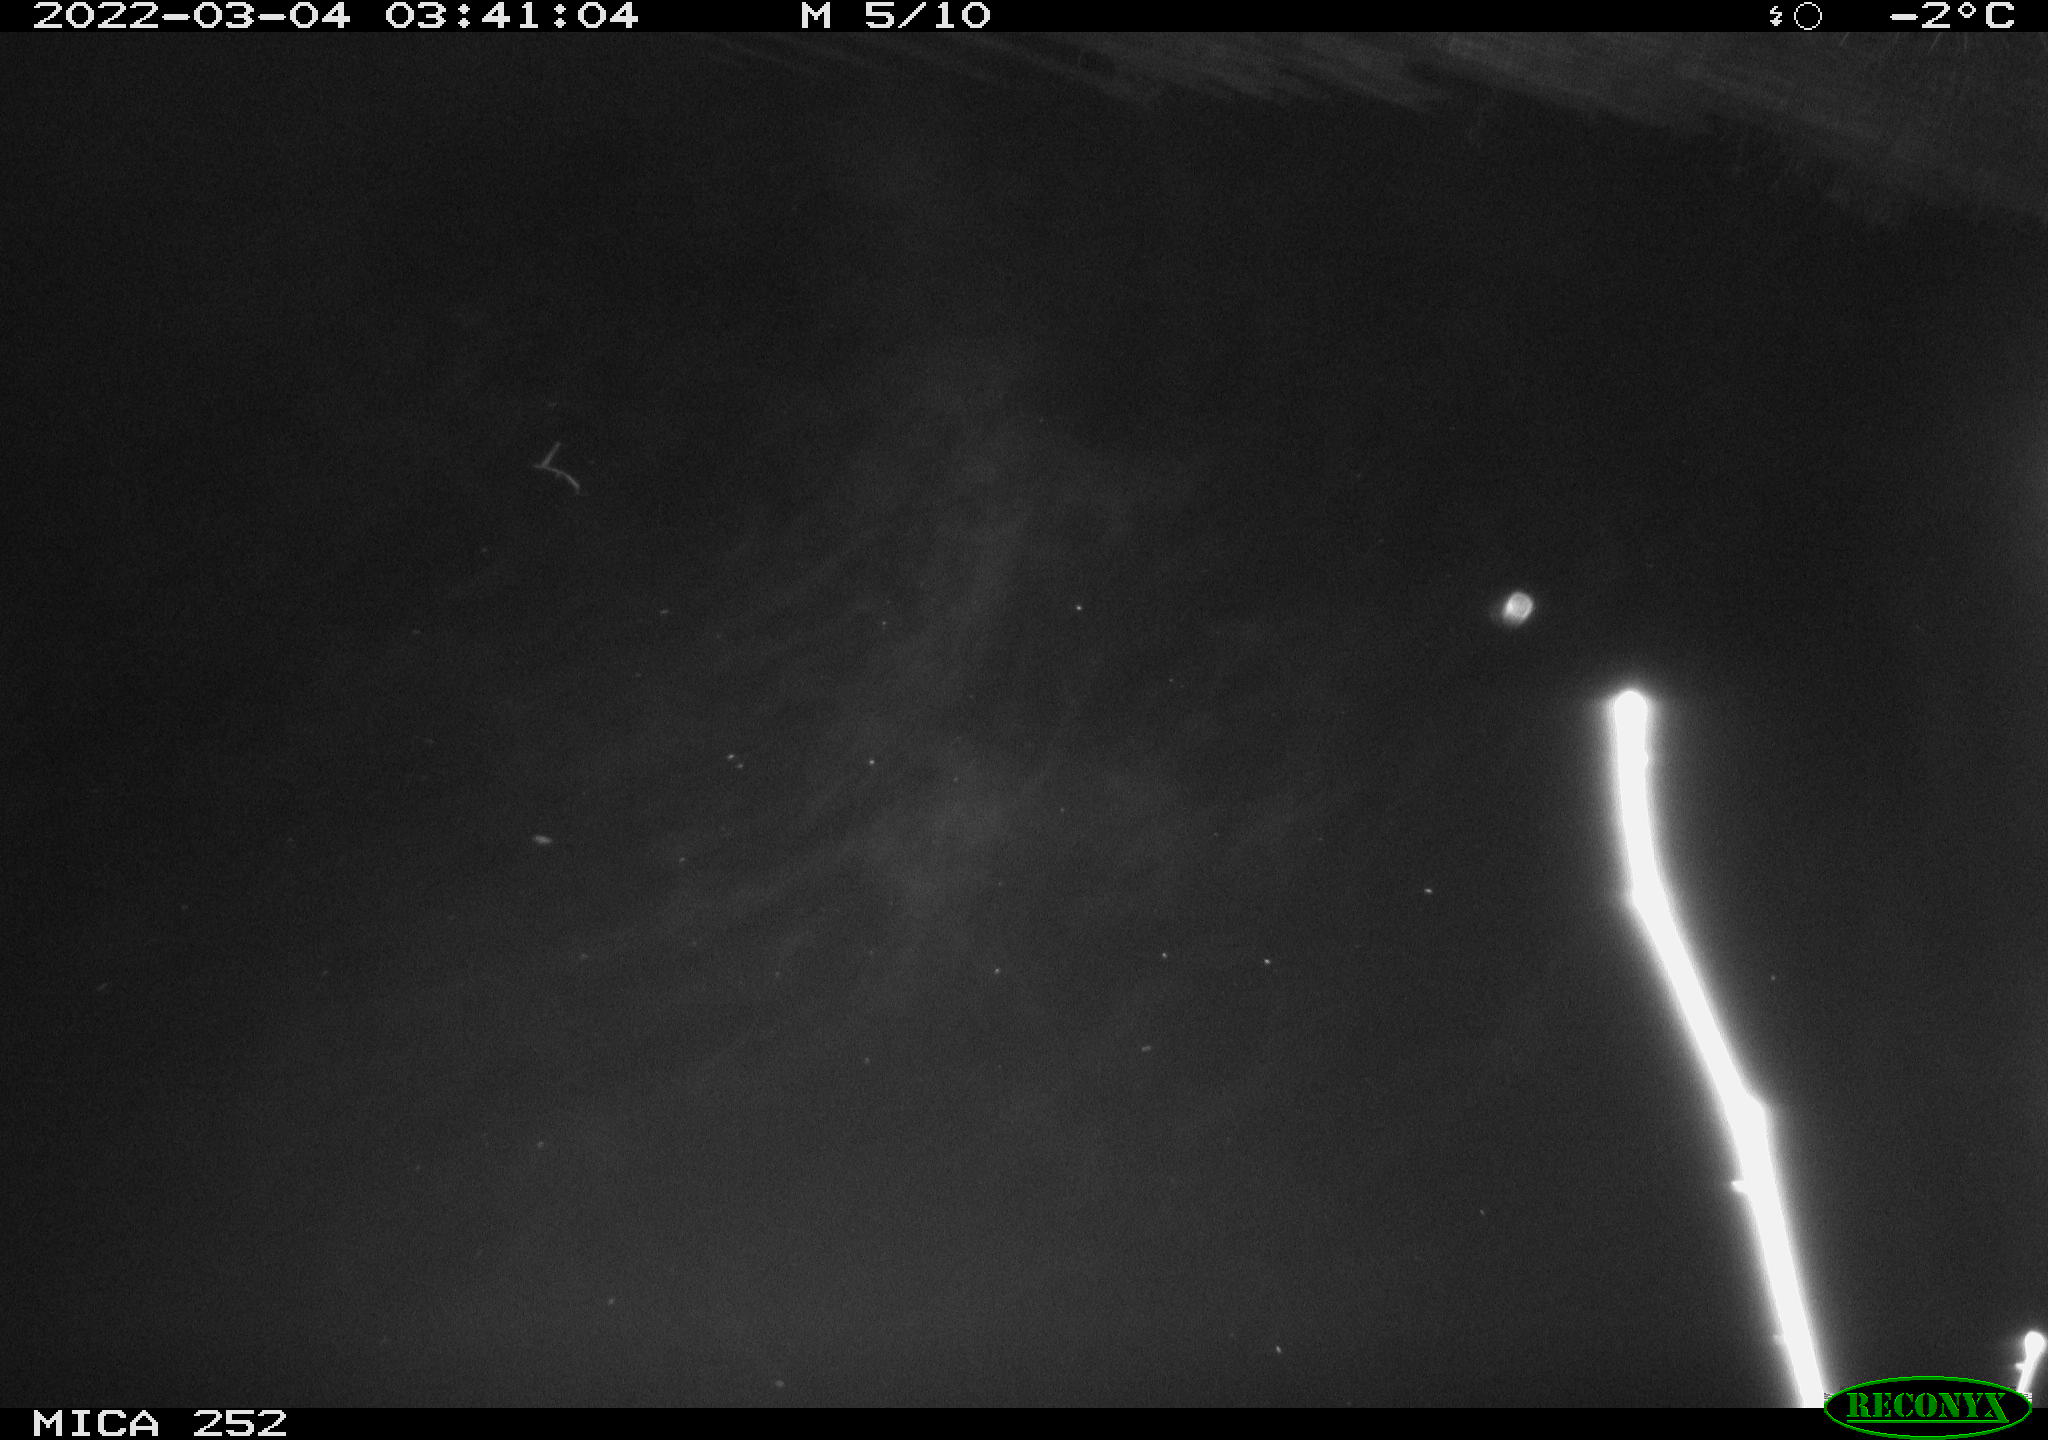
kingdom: Animalia
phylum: Chordata
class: Mammalia
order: Rodentia
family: Castoridae
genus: Castor
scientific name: Castor fiber
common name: Eurasian beaver
